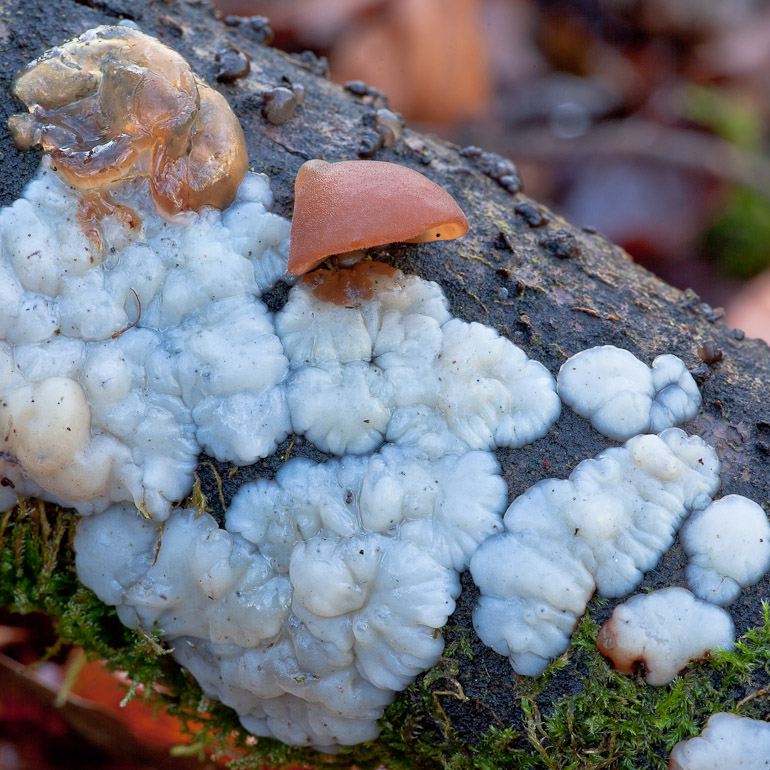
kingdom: Fungi
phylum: Basidiomycota
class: Agaricomycetes
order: Auriculariales
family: Auriculariaceae
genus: Exidia
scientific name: Exidia thuretiana
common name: hvidlig bævretop
